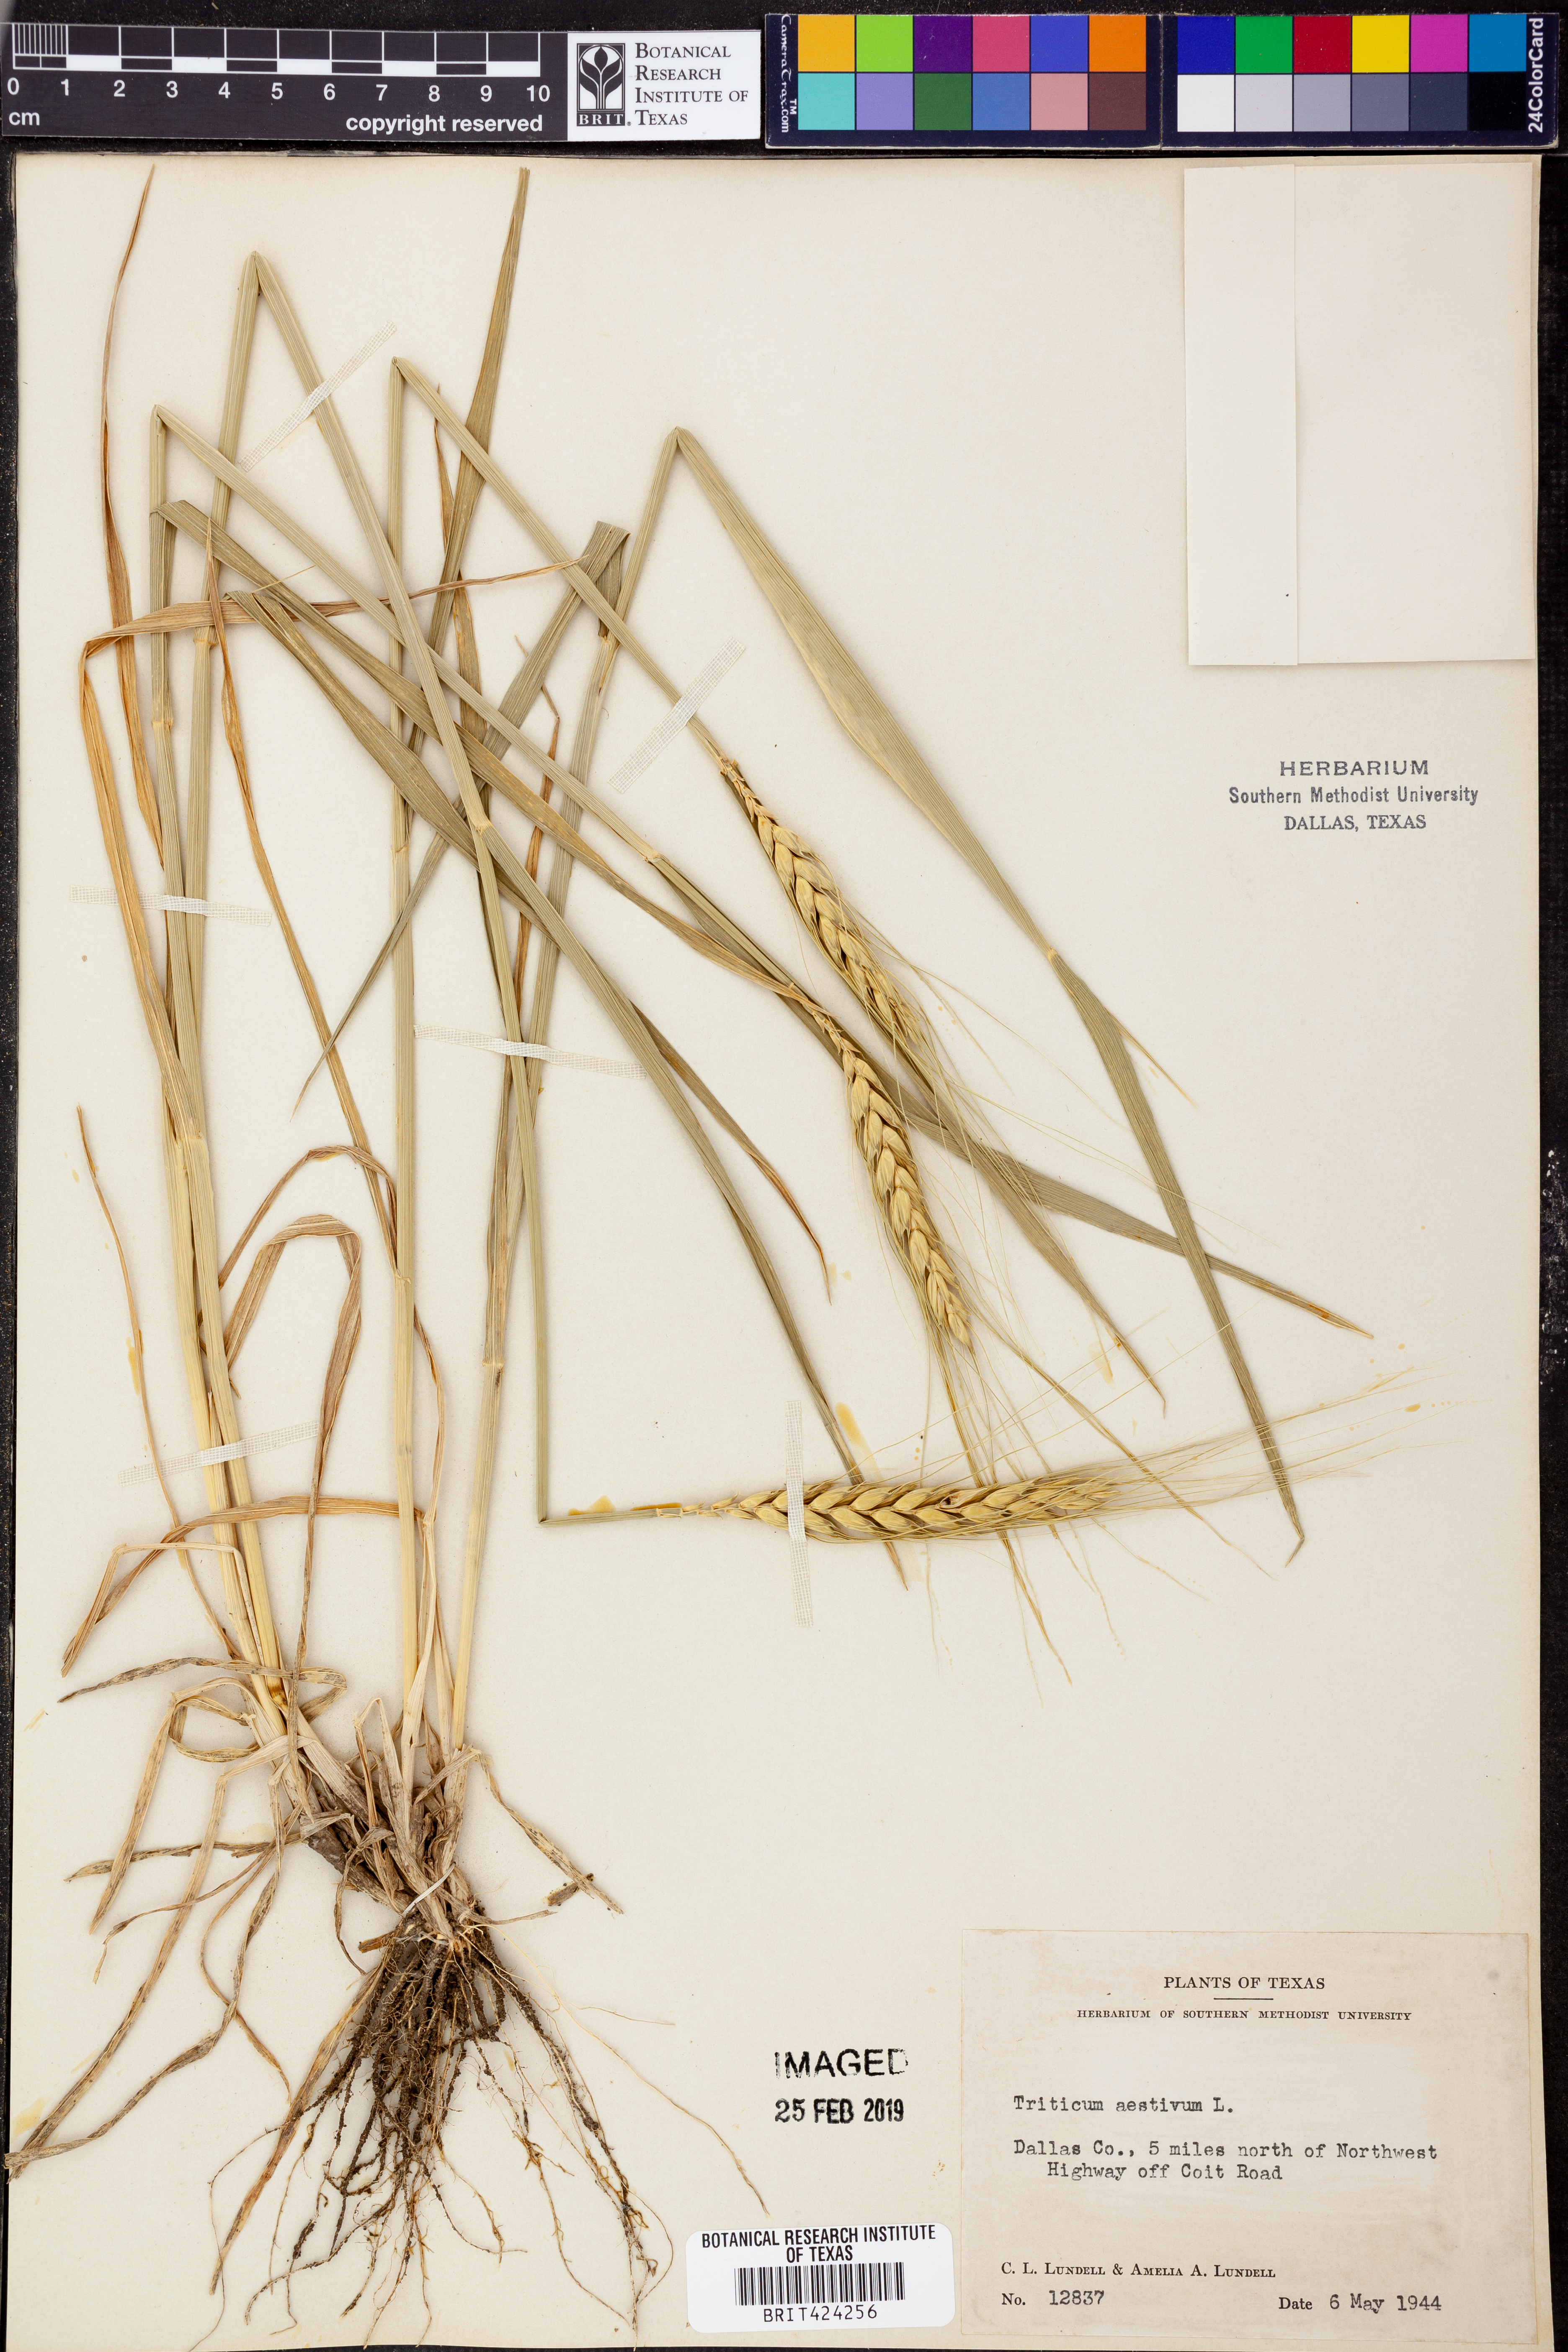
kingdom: Plantae
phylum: Tracheophyta
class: Liliopsida
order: Poales
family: Poaceae
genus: Triticum
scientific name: Triticum aestivum
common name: Common wheat
